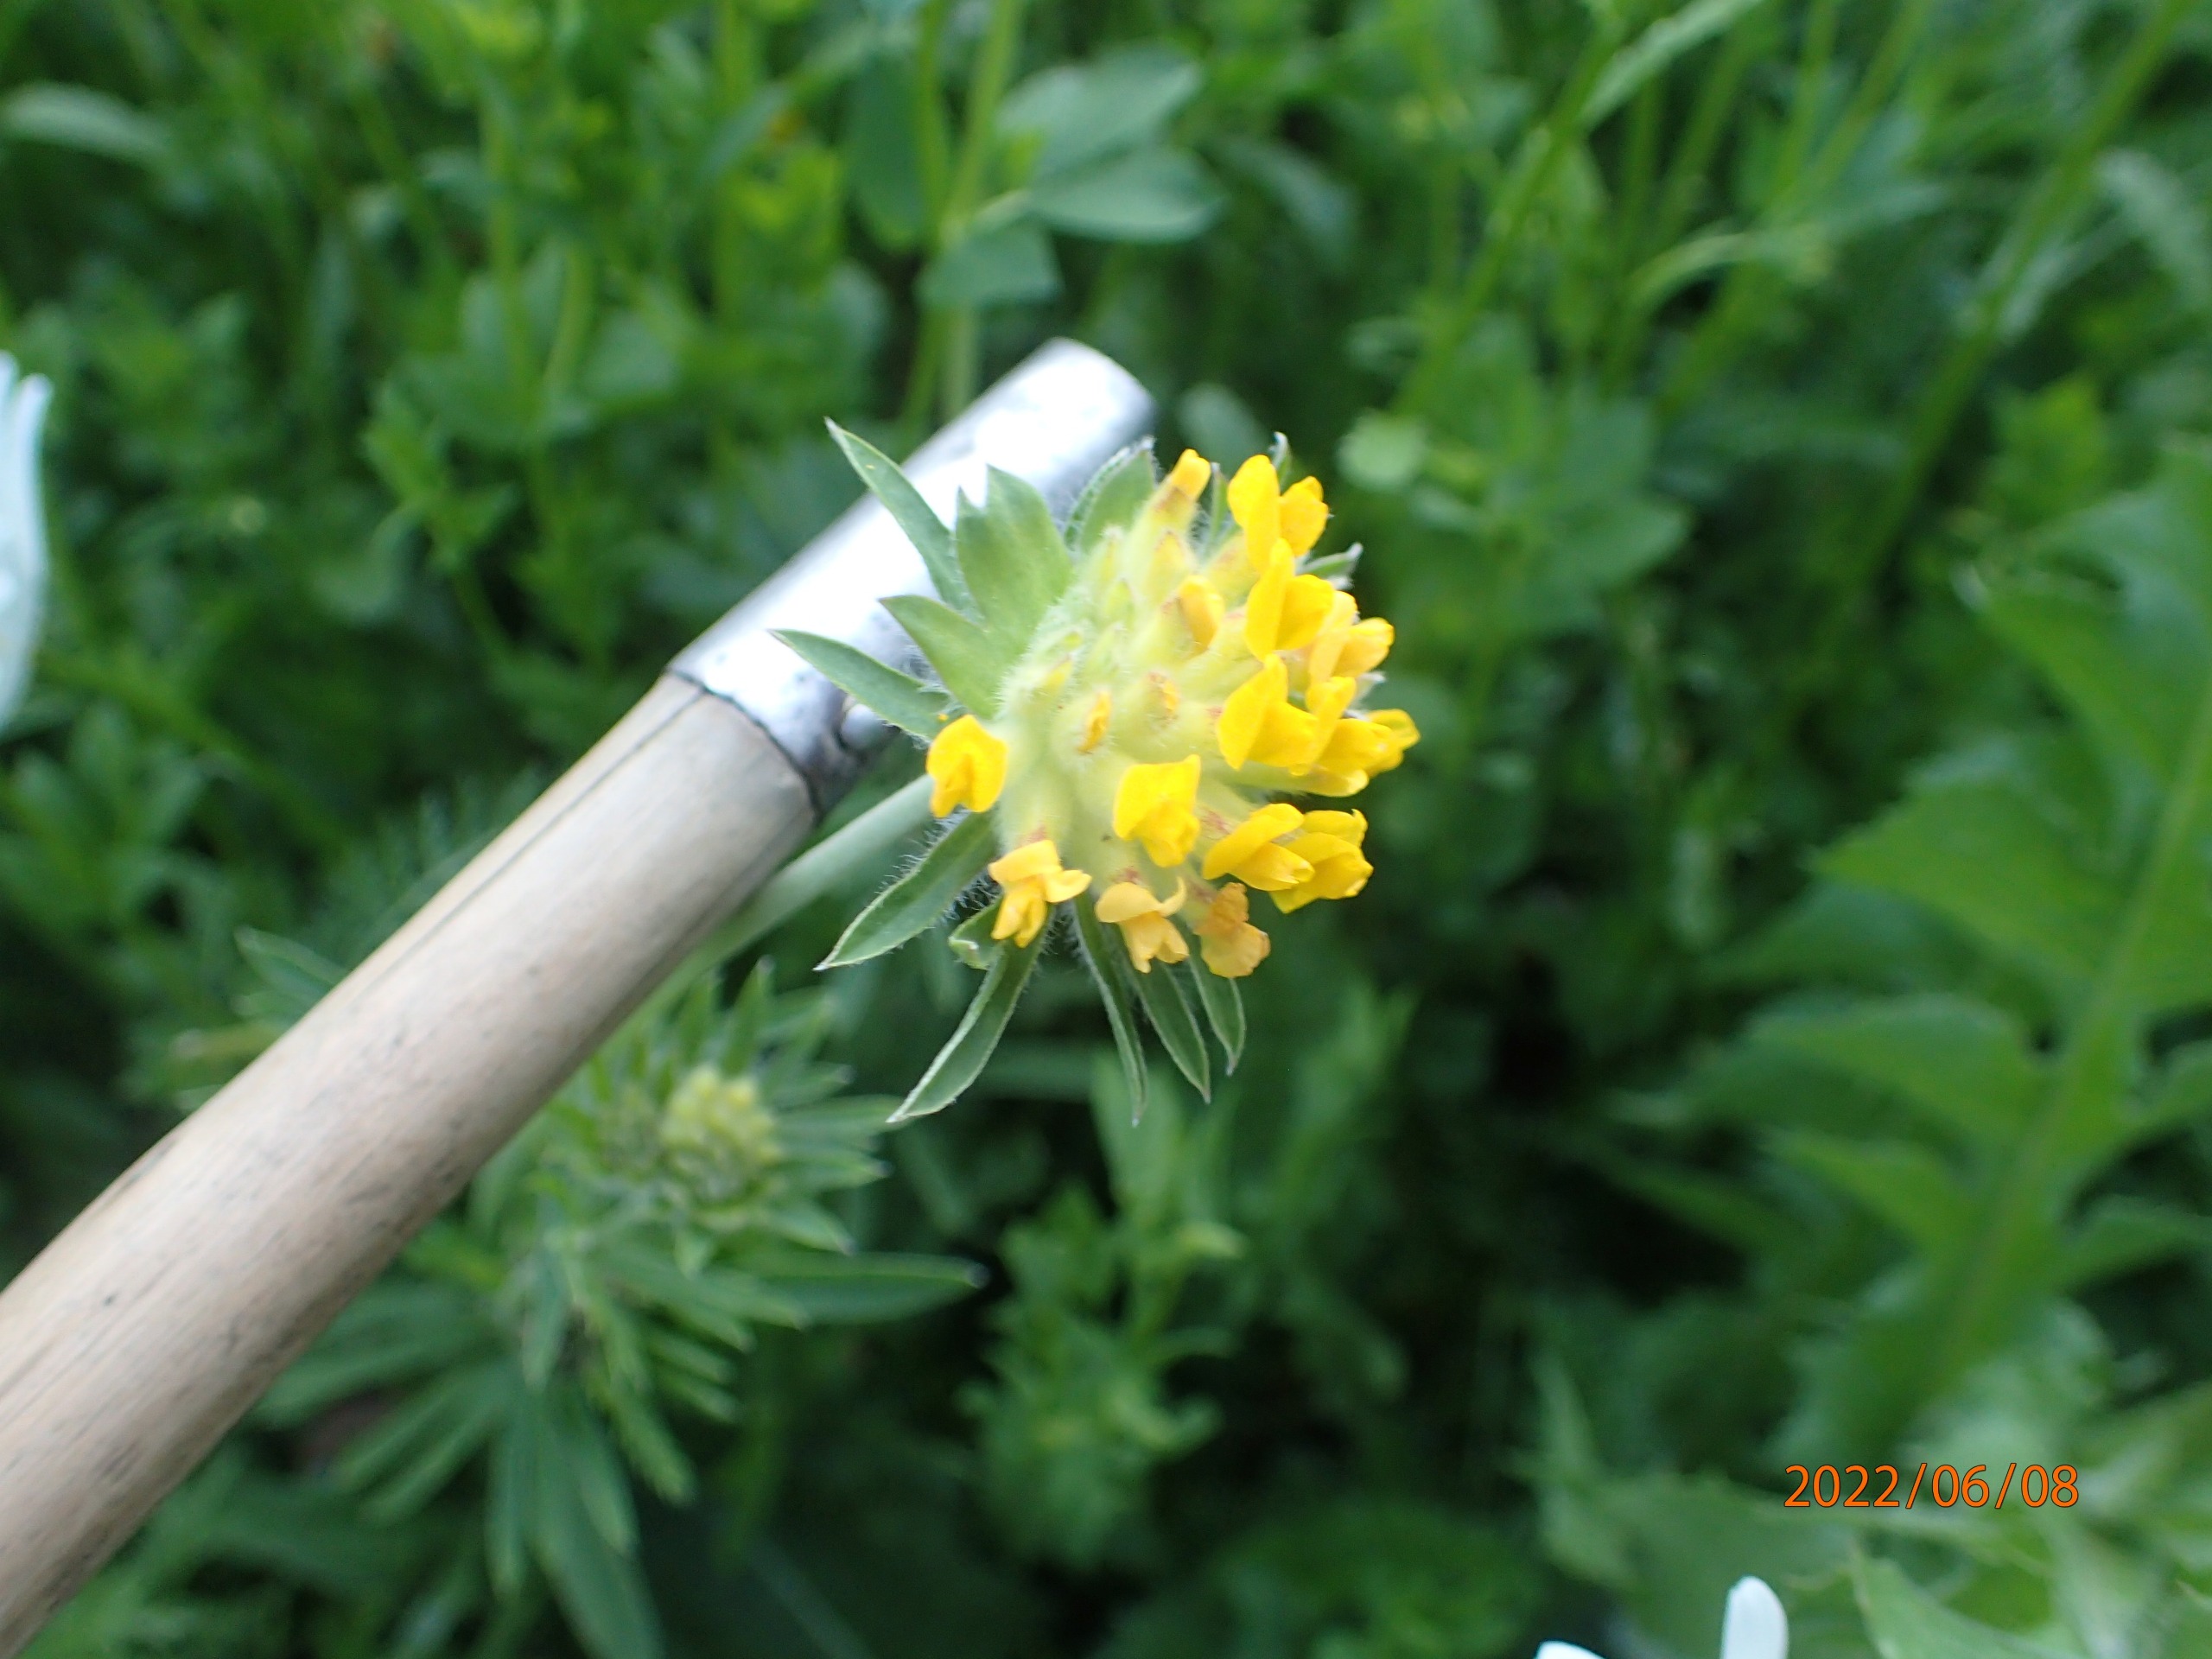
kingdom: Plantae
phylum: Tracheophyta
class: Magnoliopsida
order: Fabales
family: Fabaceae
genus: Anthyllis
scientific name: Anthyllis vulneraria
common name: Rundbælg
